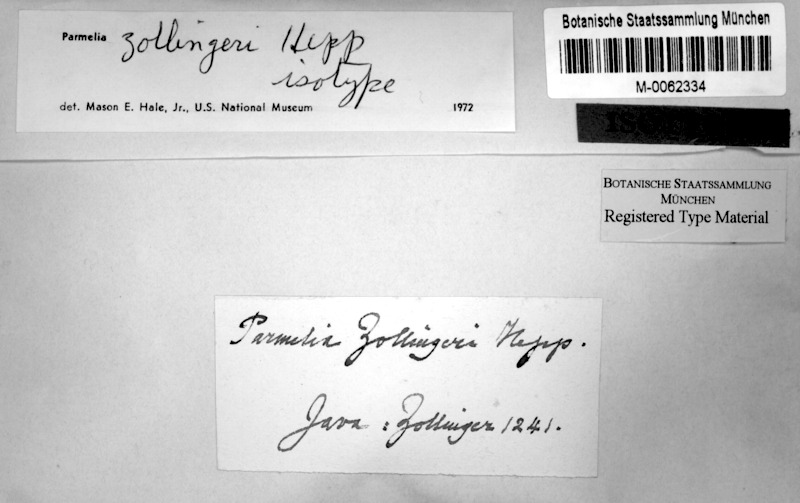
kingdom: Fungi
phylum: Ascomycota
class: Lecanoromycetes
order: Lecanorales
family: Parmeliaceae
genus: Parmotrema
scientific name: Parmotrema zollingeri
